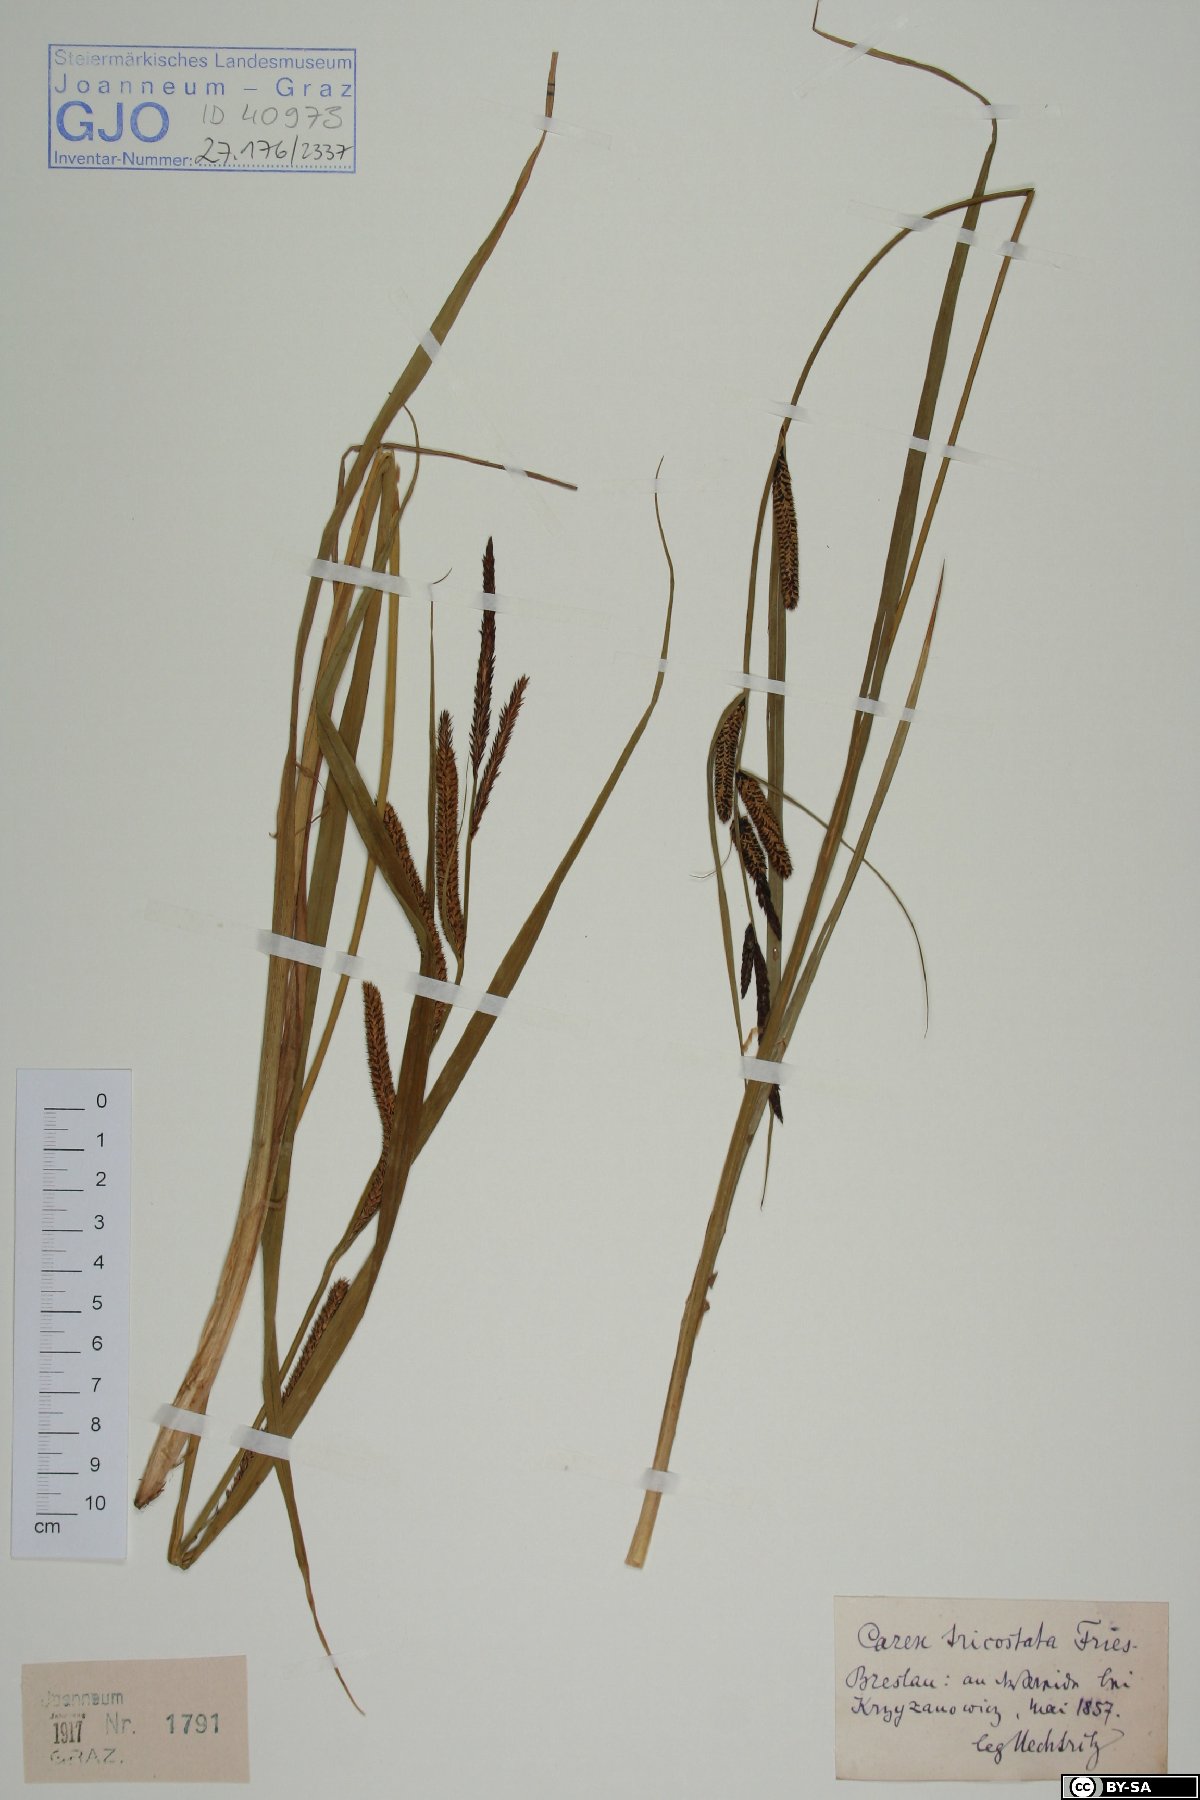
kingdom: Plantae
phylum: Tracheophyta
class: Liliopsida
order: Poales
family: Cyperaceae
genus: Carex
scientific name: Carex acuta
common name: Slender tufted-sedge
